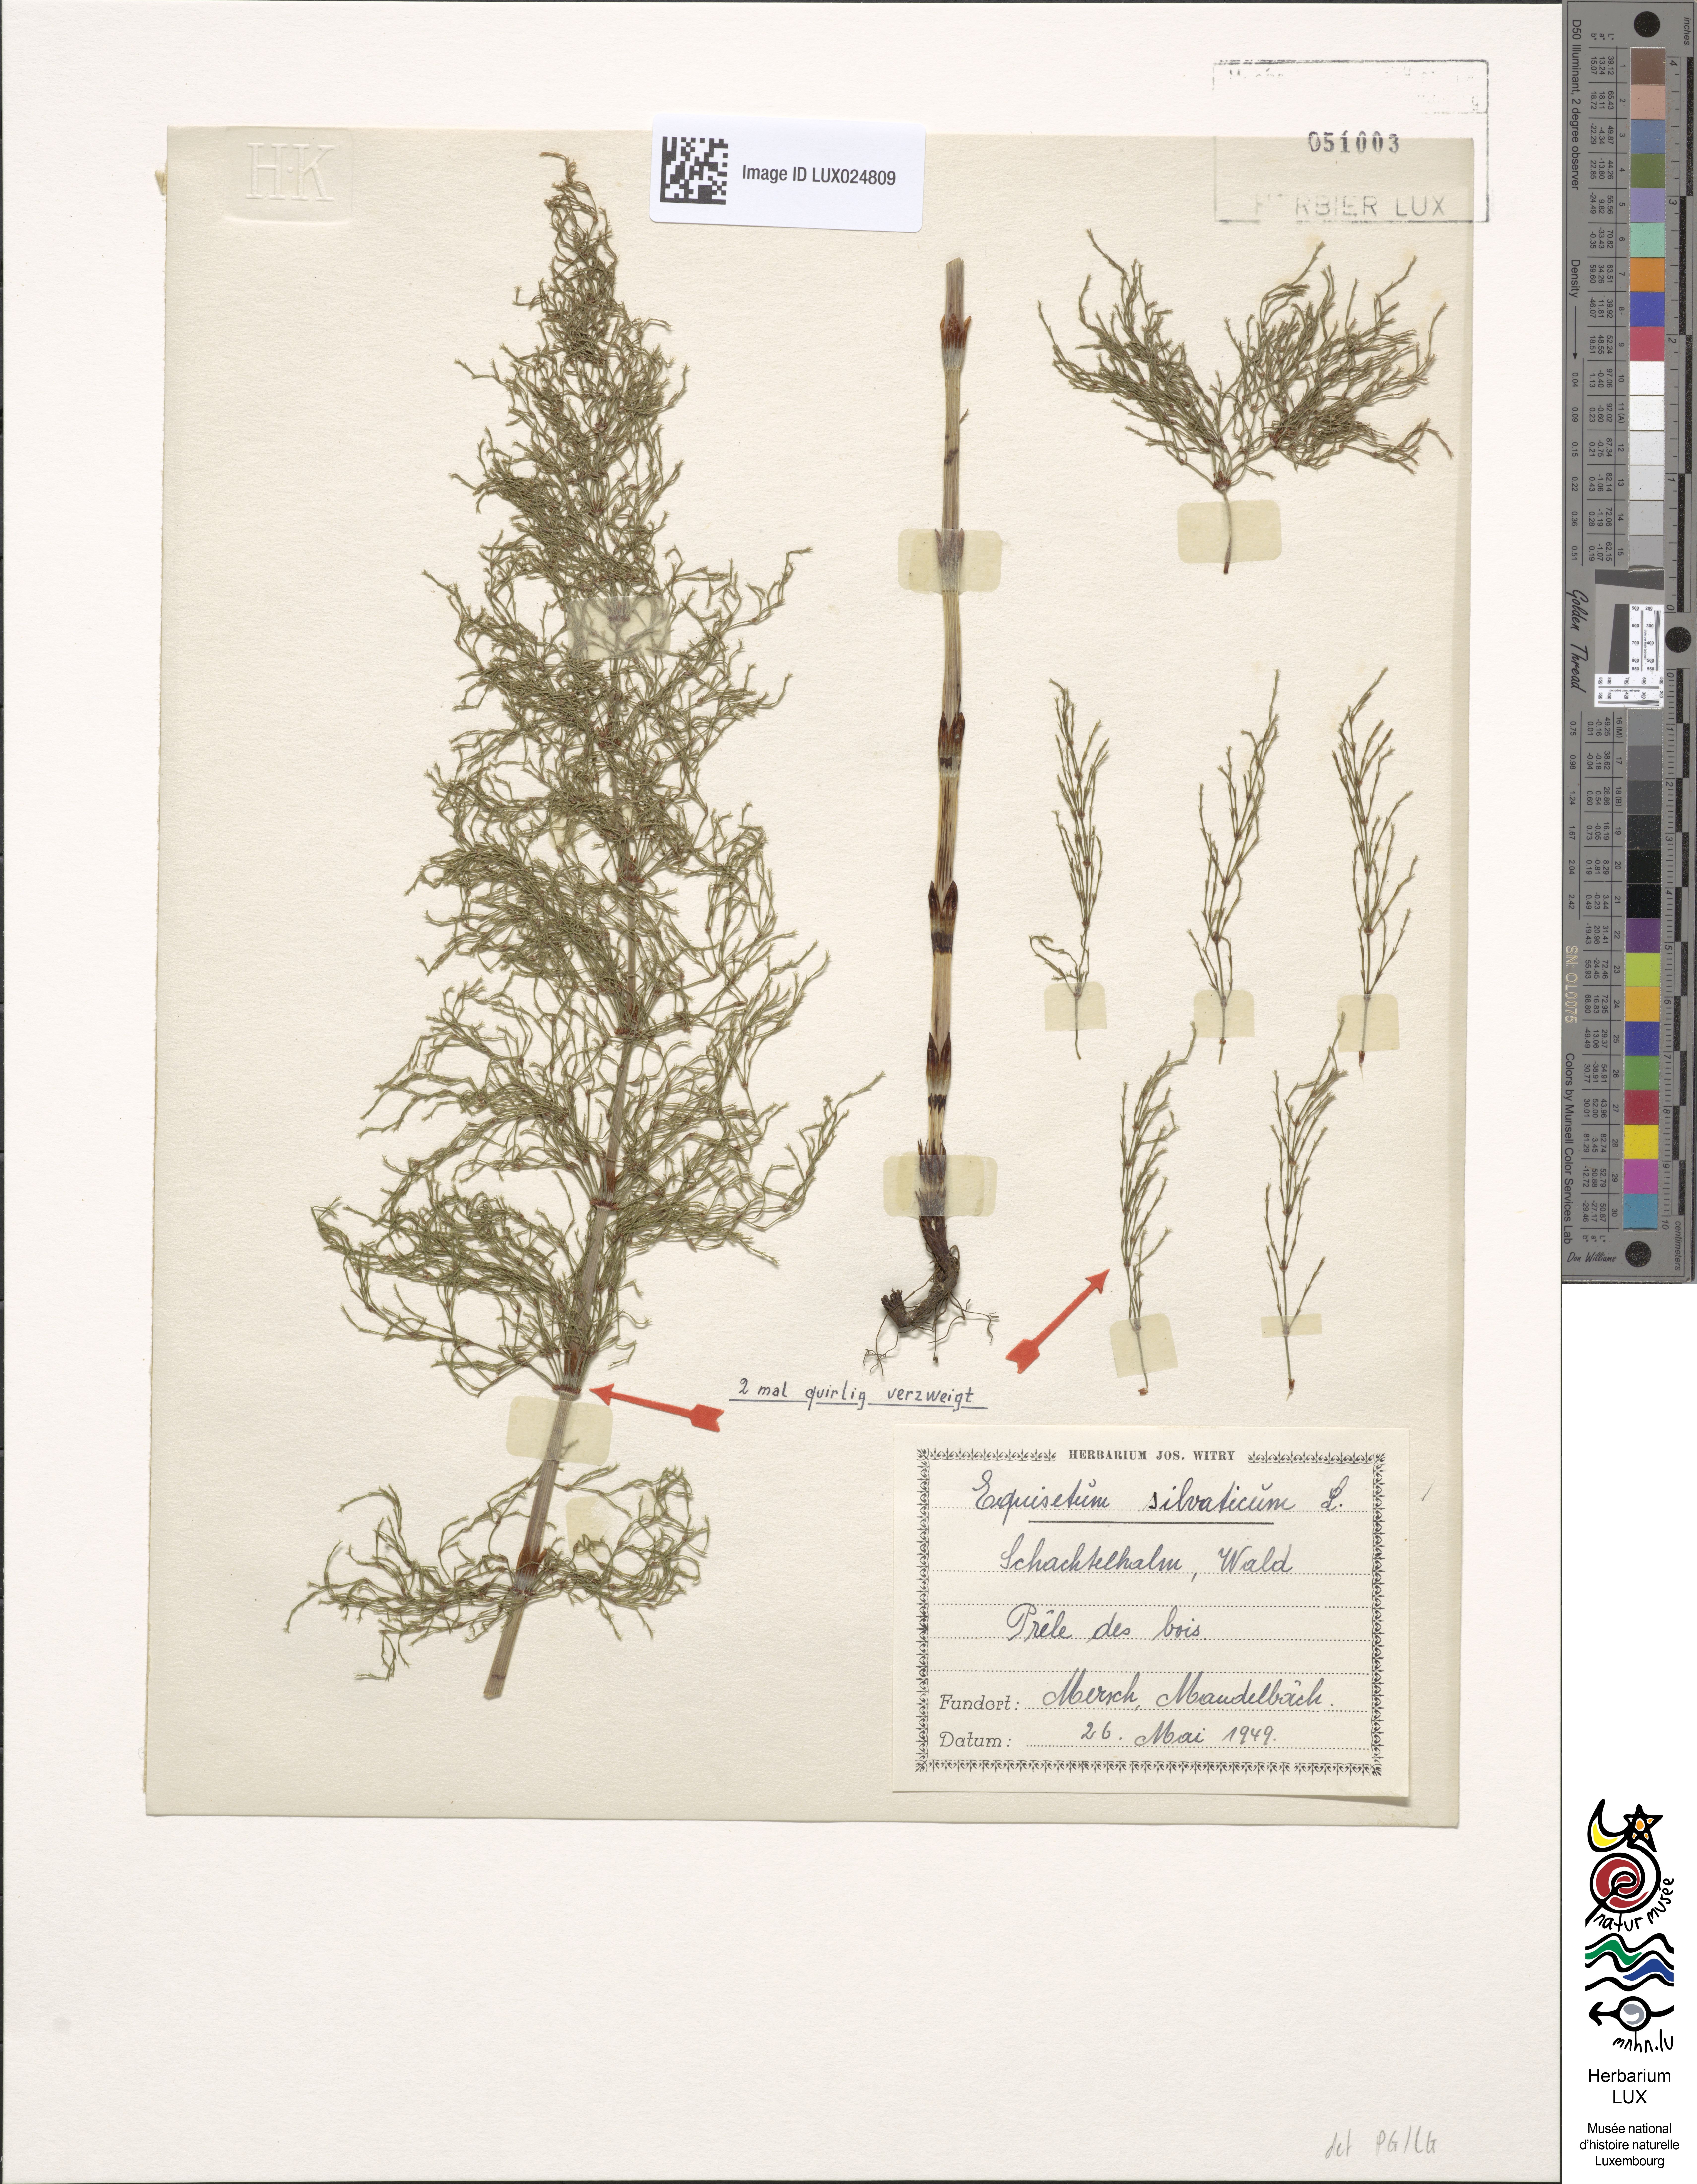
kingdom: Plantae
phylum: Tracheophyta
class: Polypodiopsida
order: Equisetales
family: Equisetaceae
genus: Equisetum
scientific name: Equisetum sylvaticum
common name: Wood horsetail
